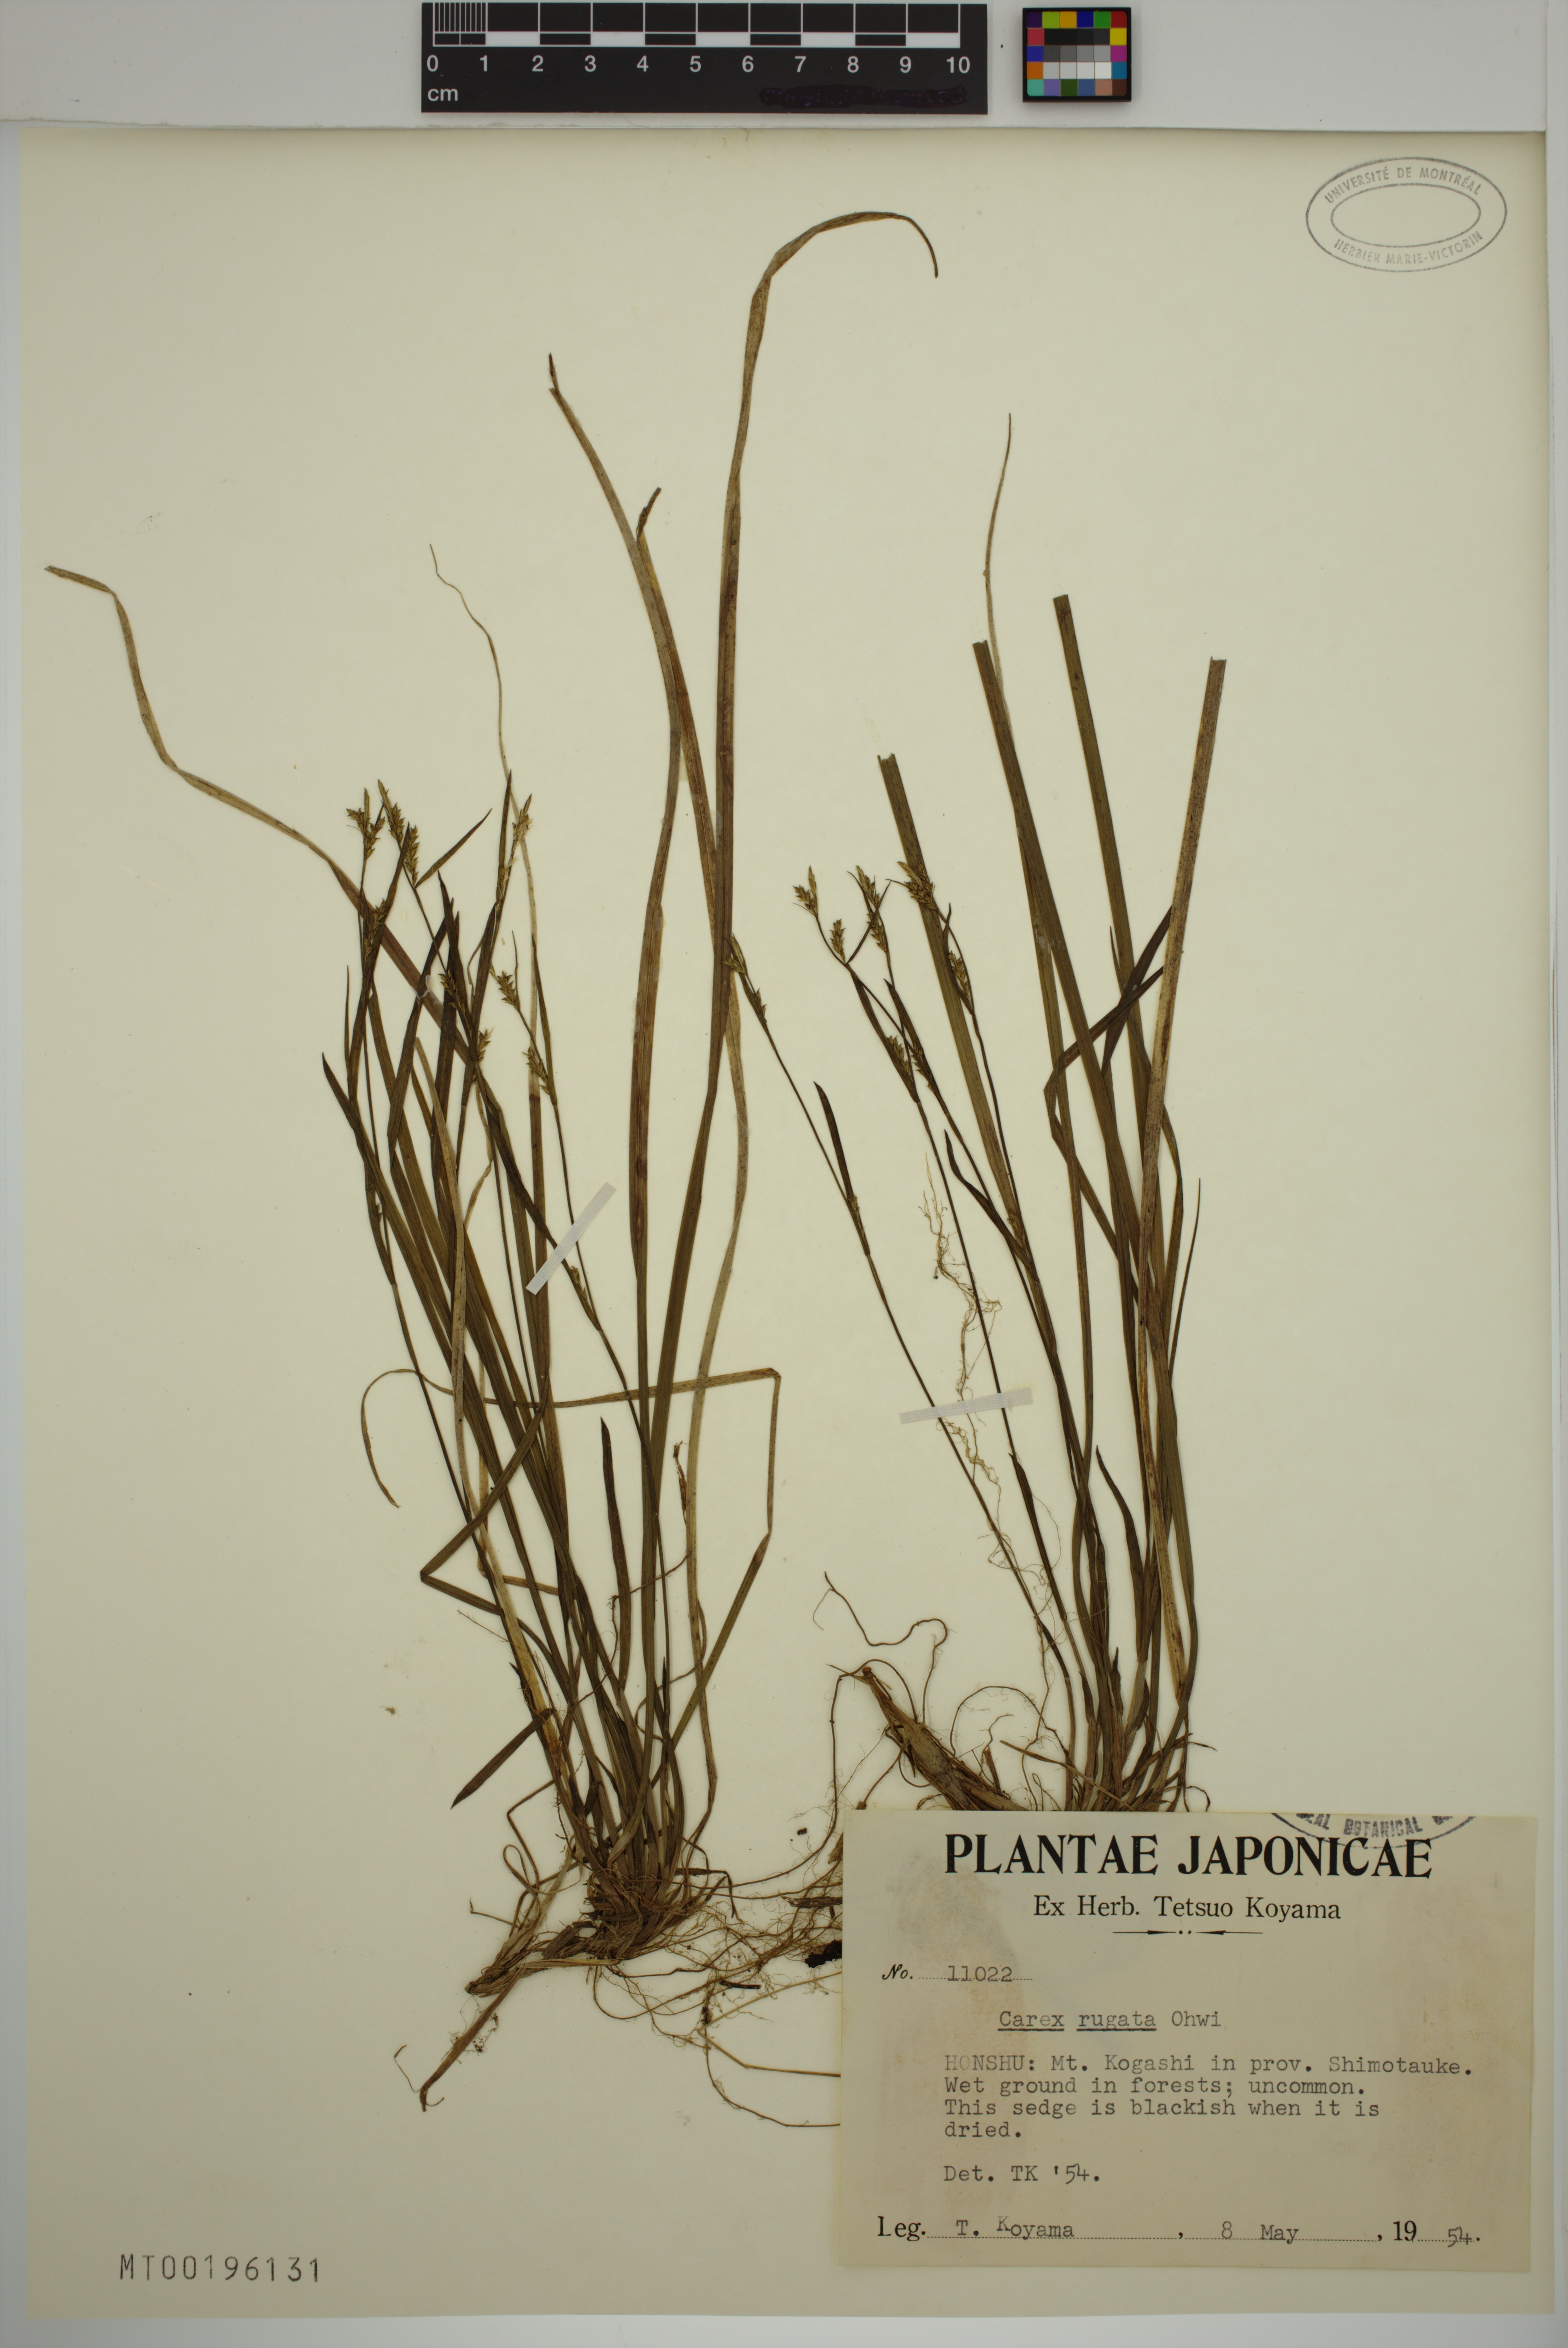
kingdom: Plantae
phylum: Tracheophyta
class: Liliopsida
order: Poales
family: Cyperaceae
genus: Carex
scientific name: Carex rugata
